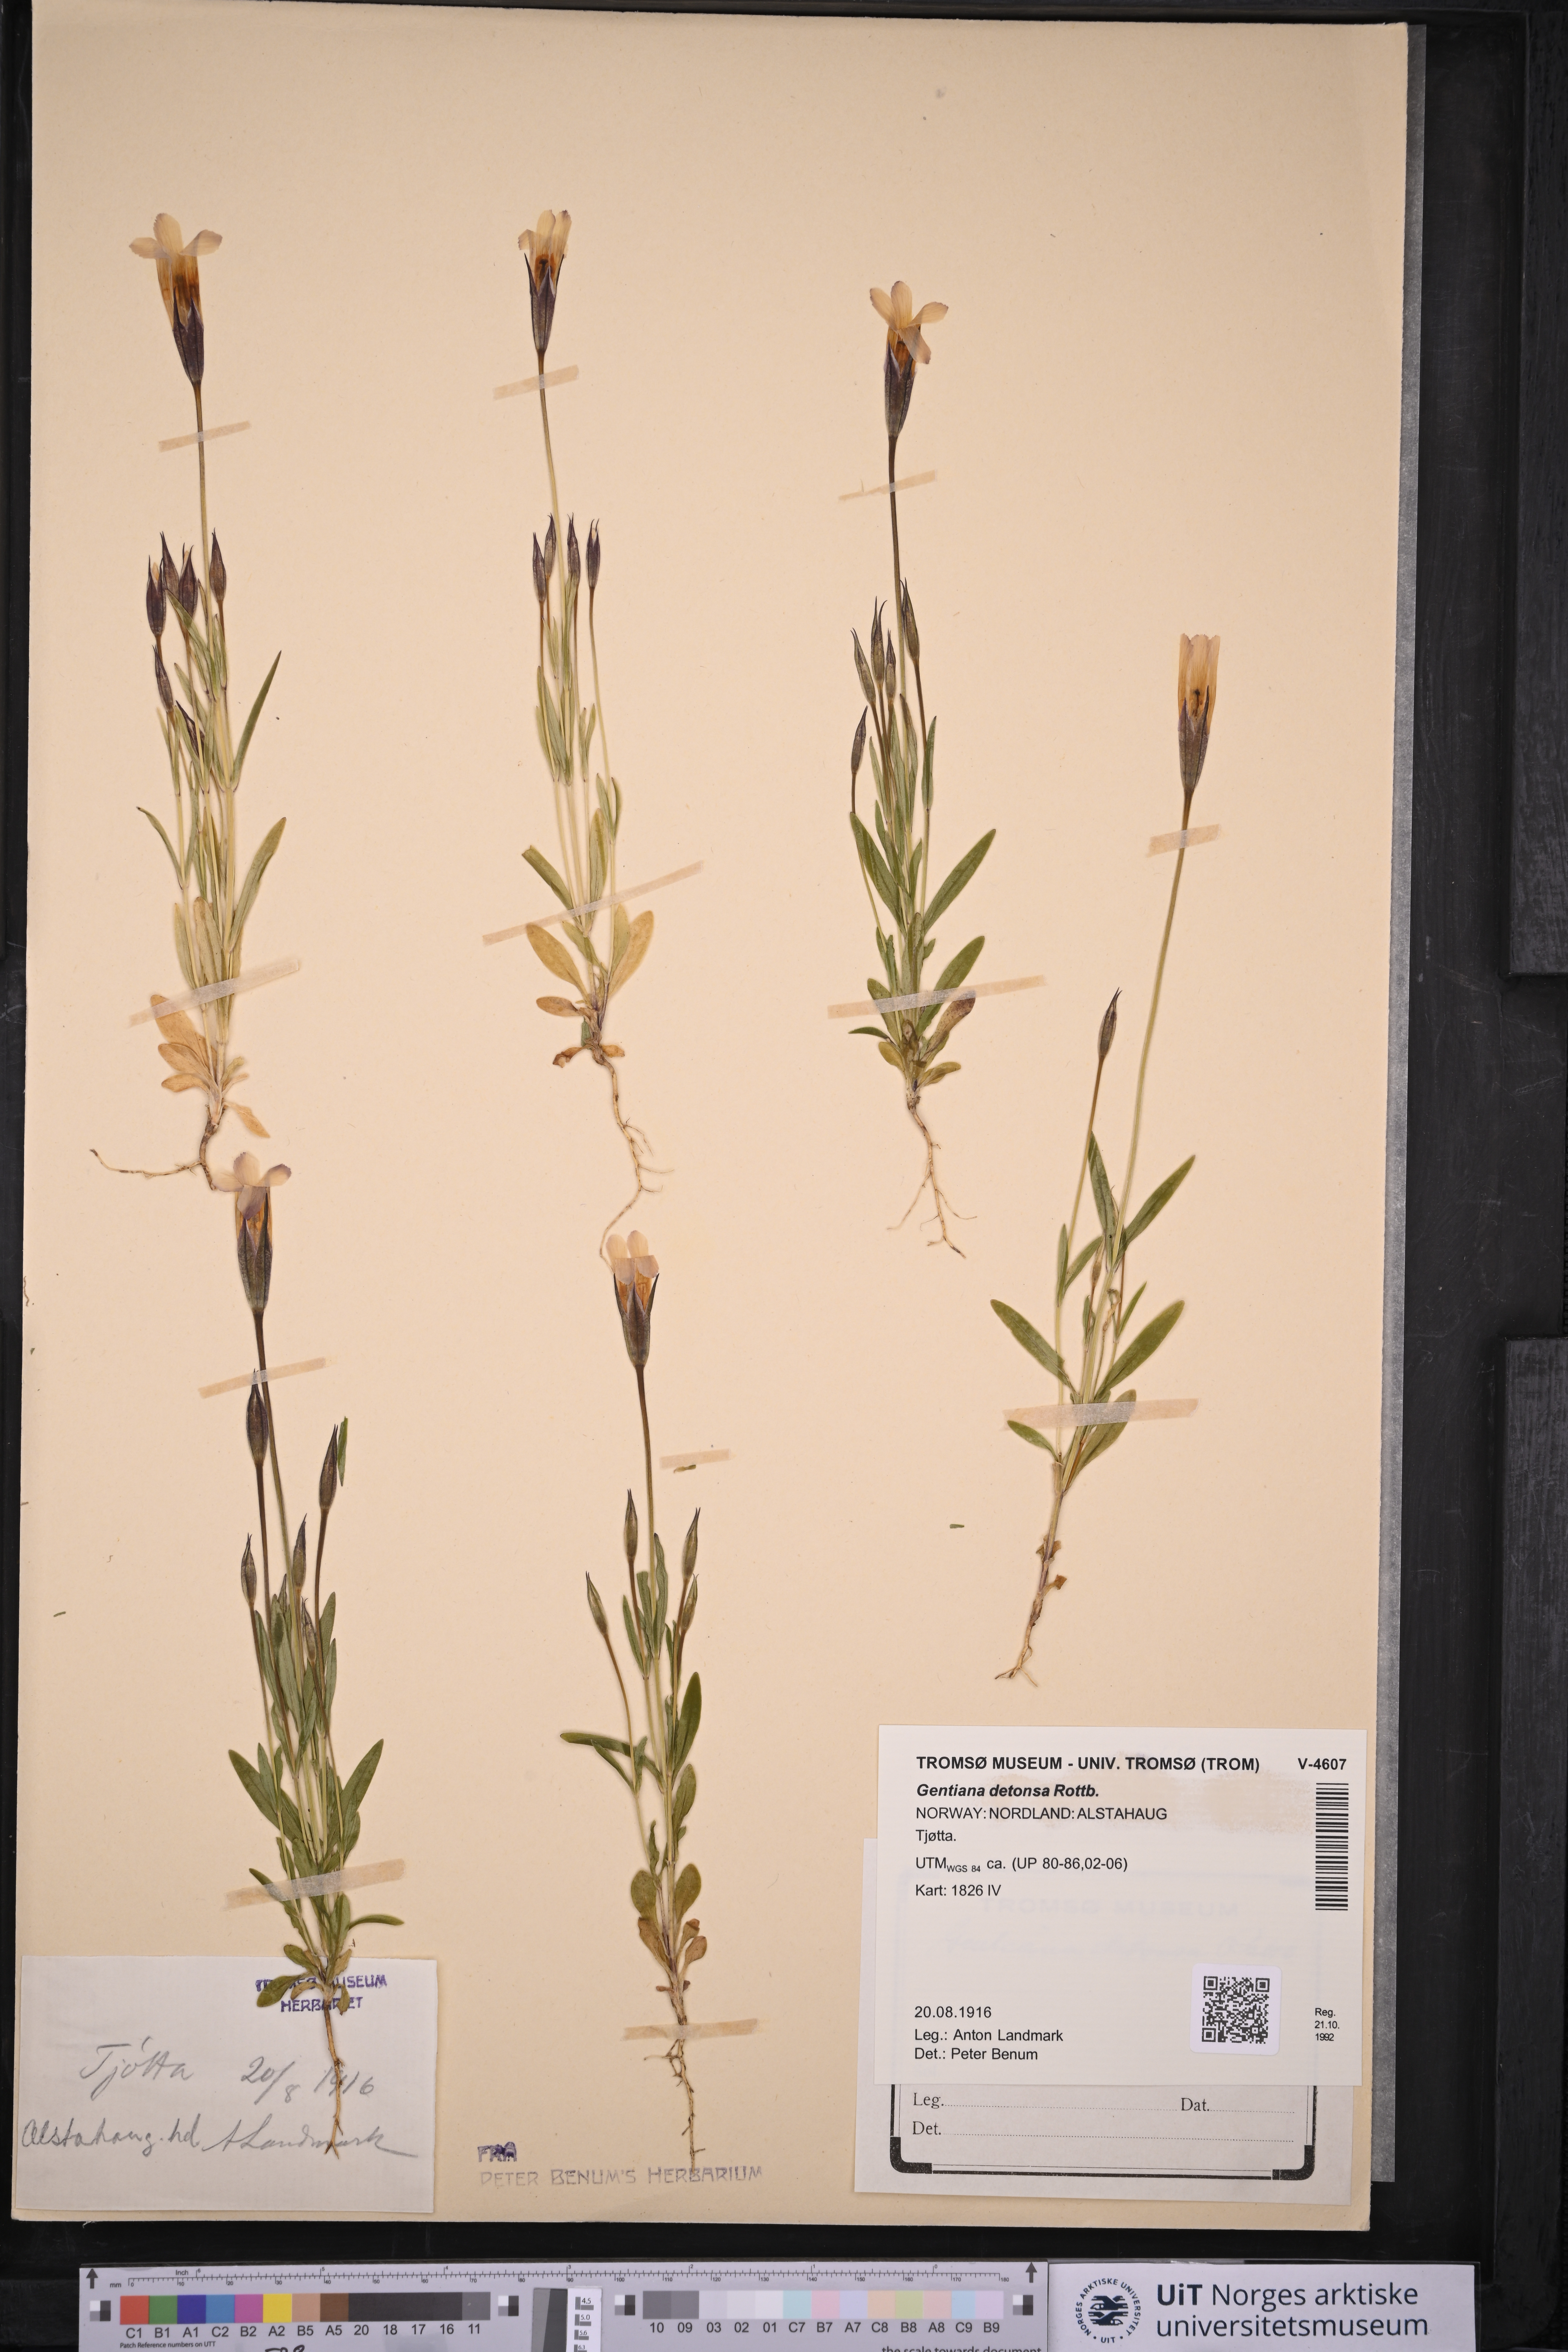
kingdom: Plantae
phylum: Tracheophyta
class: Magnoliopsida
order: Gentianales
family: Gentianaceae
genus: Gentianopsis
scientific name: Gentianopsis detonsa
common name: Fringed-gentian
